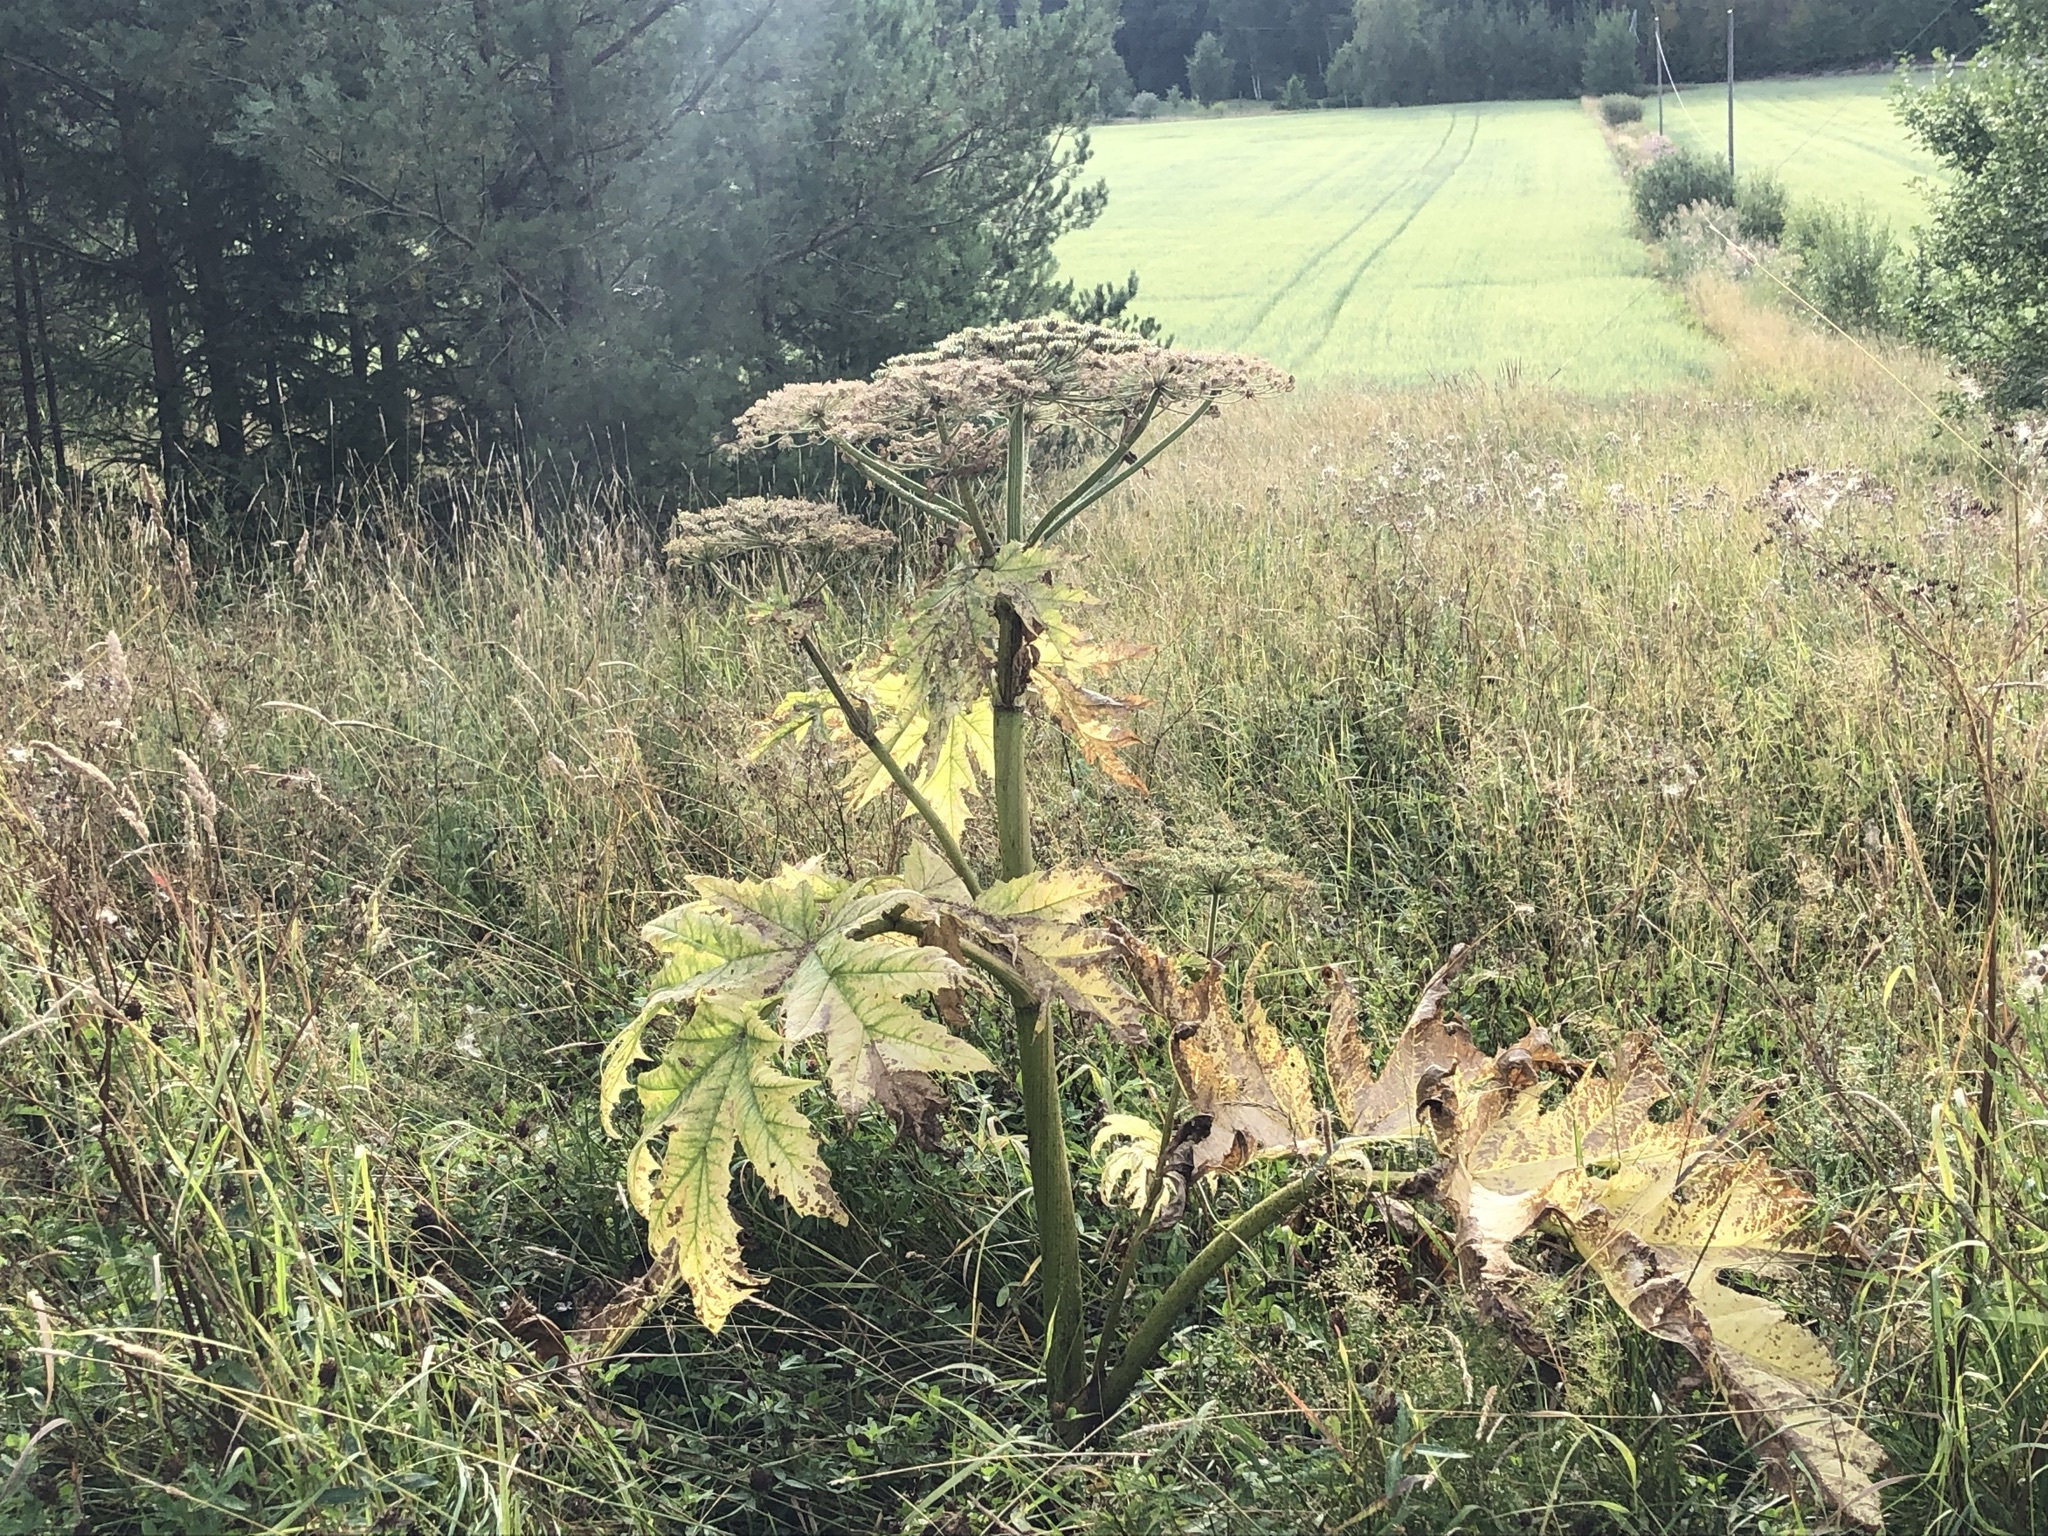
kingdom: Plantae
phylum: Tracheophyta
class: Magnoliopsida
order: Apiales
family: Apiaceae
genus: Heracleum
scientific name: Heracleum
